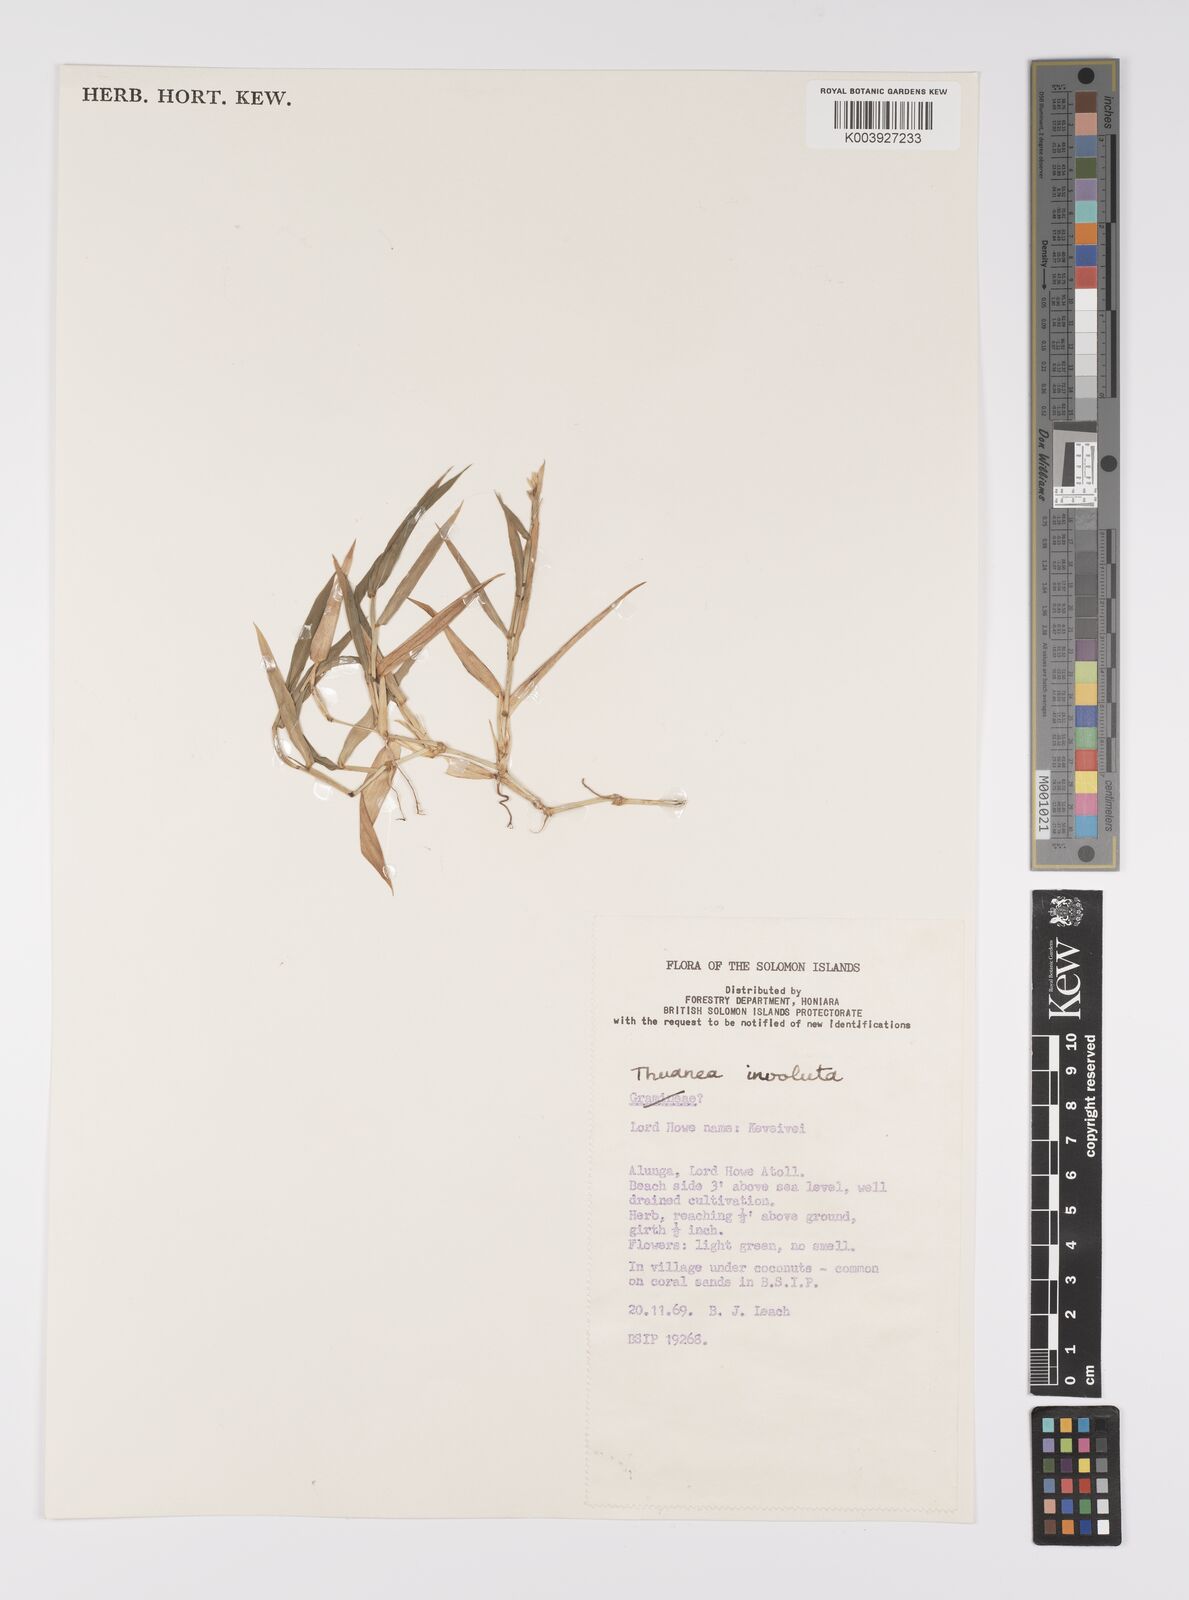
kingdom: Plantae
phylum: Tracheophyta
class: Liliopsida
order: Poales
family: Poaceae
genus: Thuarea
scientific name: Thuarea involuta
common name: Tropical beach grass
